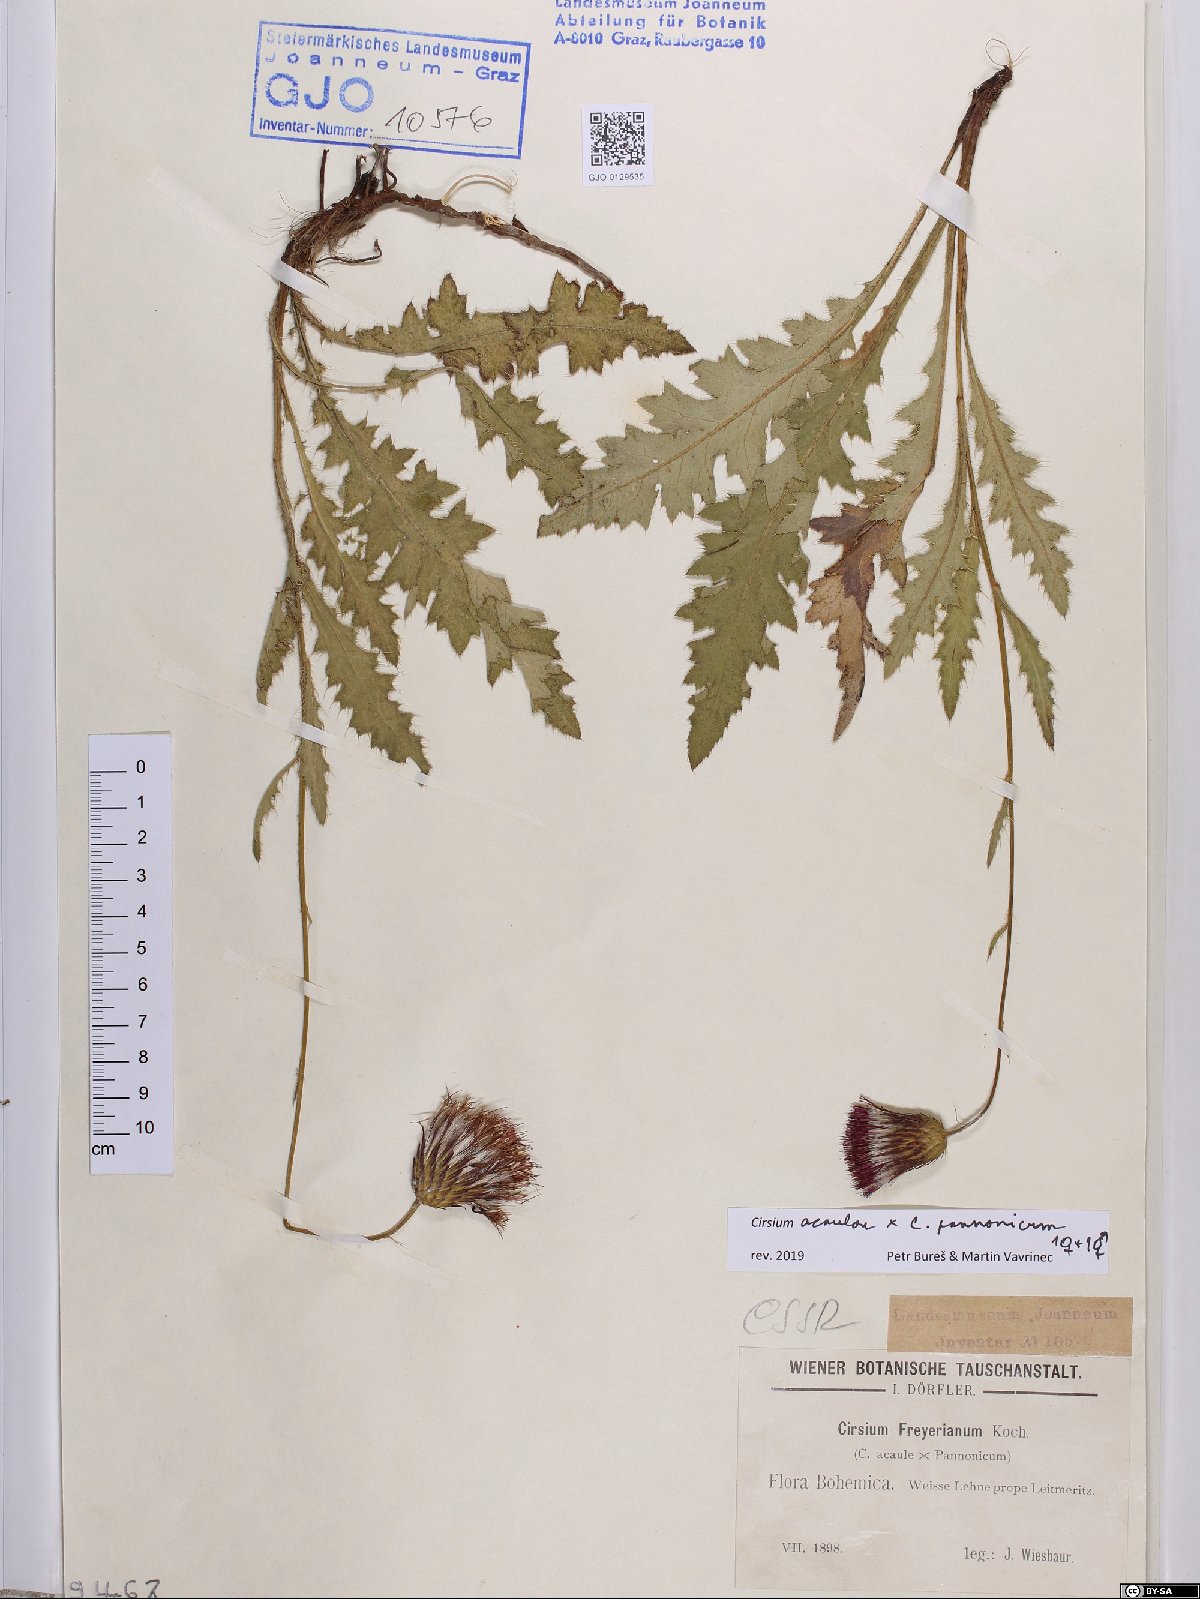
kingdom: Plantae
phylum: Tracheophyta
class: Magnoliopsida
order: Asterales
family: Asteraceae
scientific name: Asteraceae
